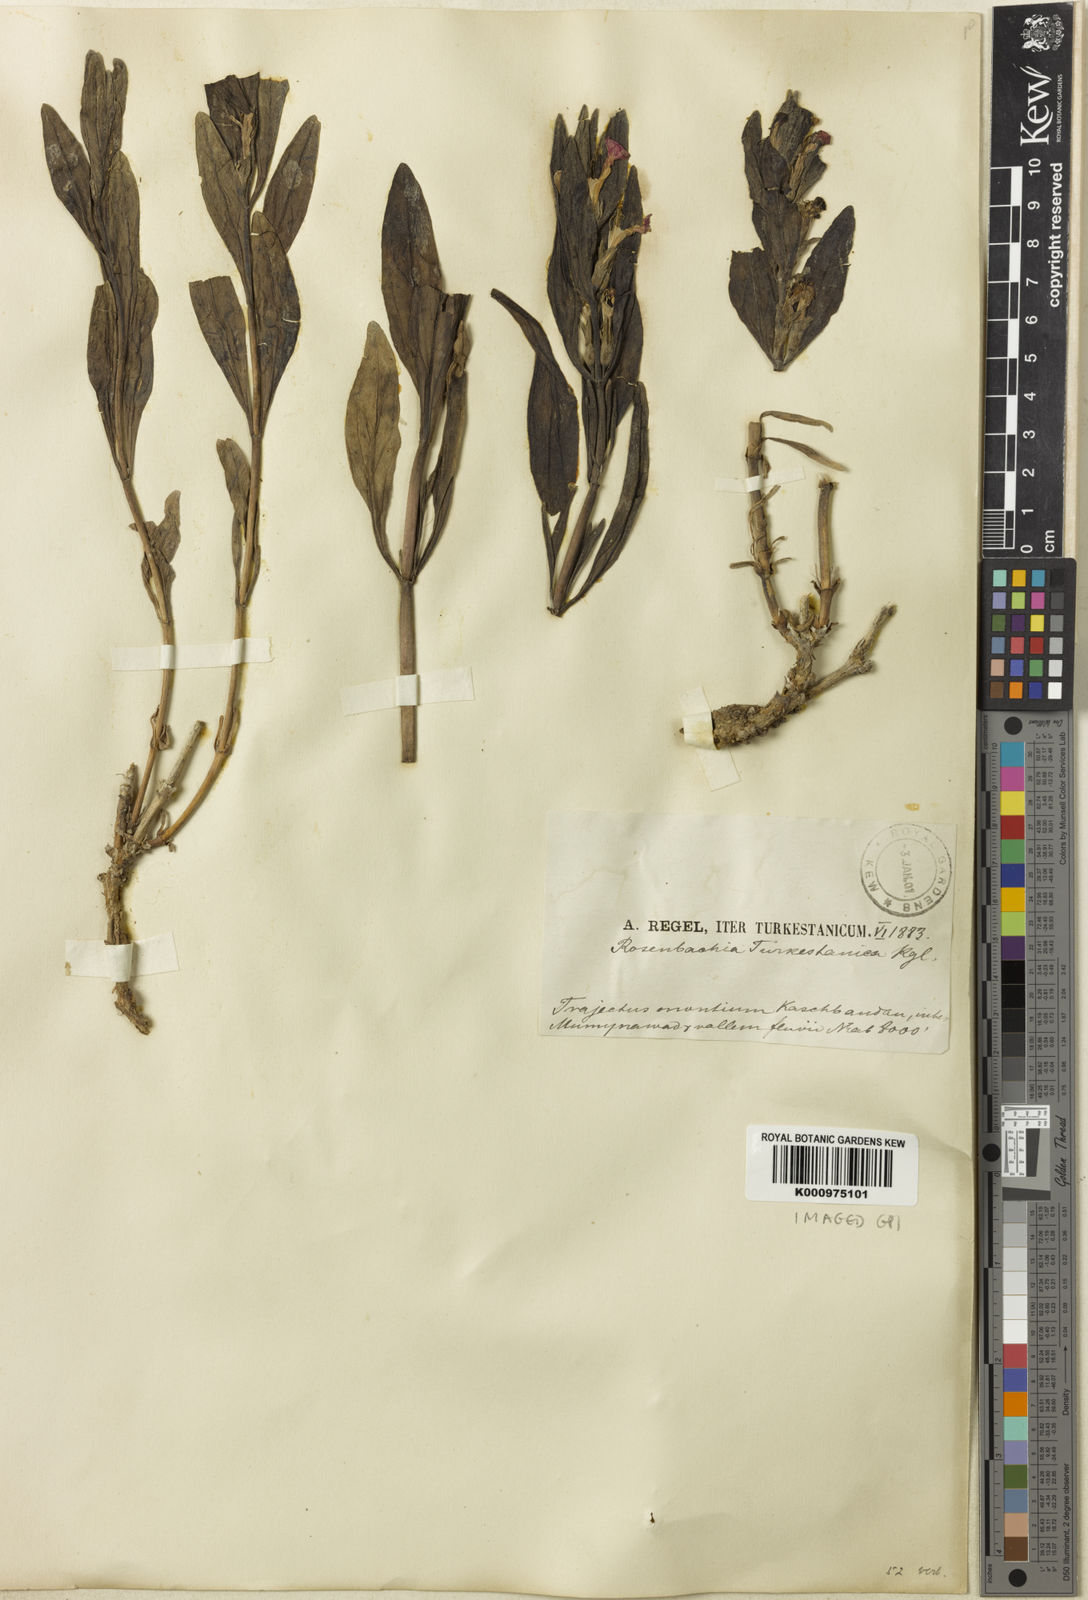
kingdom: Plantae
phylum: Tracheophyta
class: Magnoliopsida
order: Lamiales
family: Lamiaceae
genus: Ajuga
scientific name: Ajuga turkestanica
